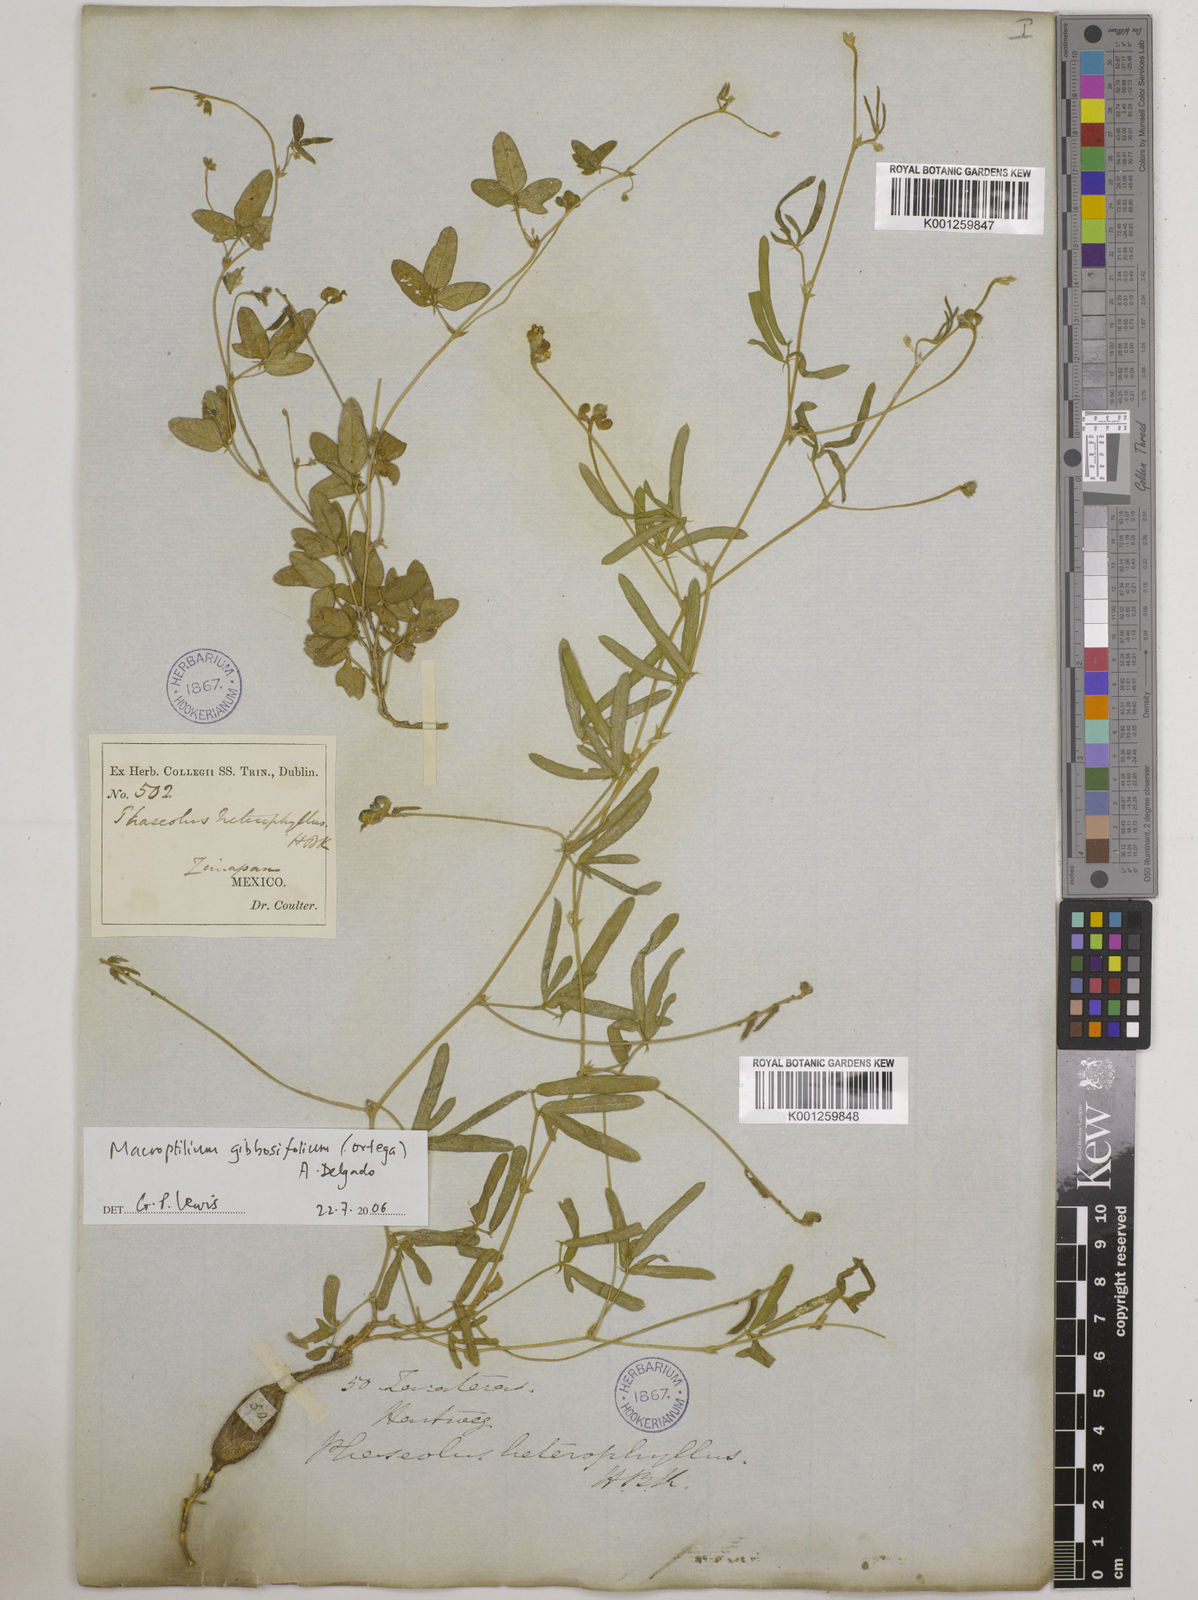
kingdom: Plantae
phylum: Tracheophyta
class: Magnoliopsida
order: Fabales
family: Fabaceae
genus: Macroptilium
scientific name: Macroptilium gibbosifolium
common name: Variableleaf bushbean
